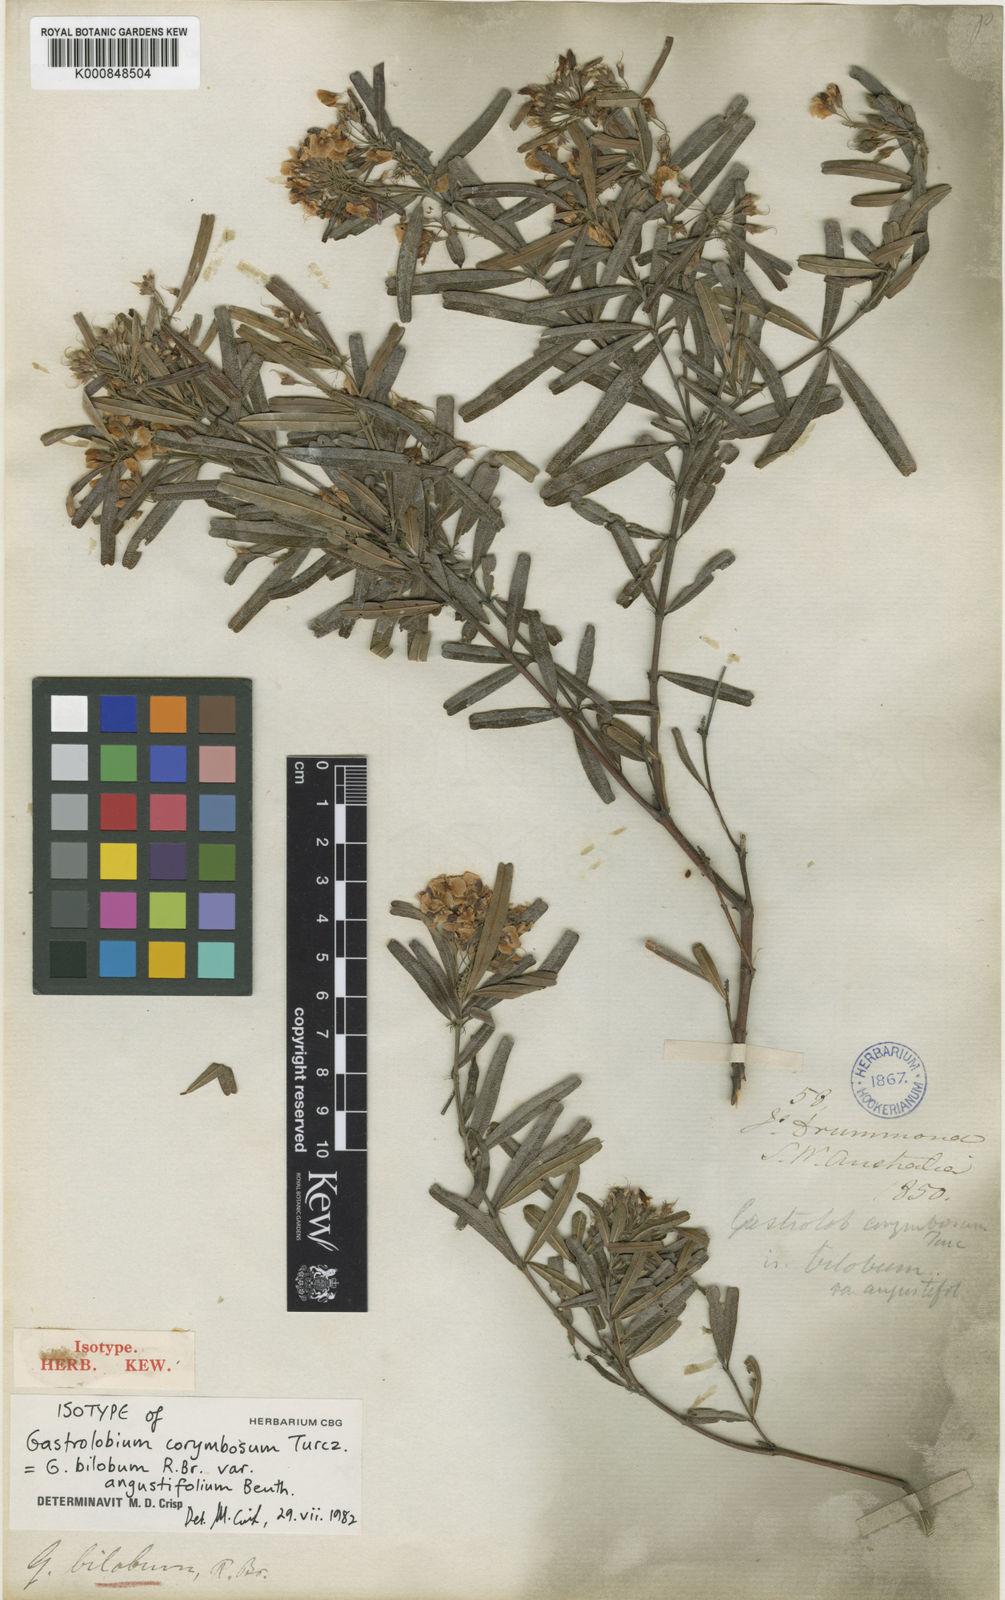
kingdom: Plantae
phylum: Tracheophyta
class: Magnoliopsida
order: Fabales
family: Fabaceae
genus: Gastrolobium
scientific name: Gastrolobium bilobum
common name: Heart-leaf poisonbush
